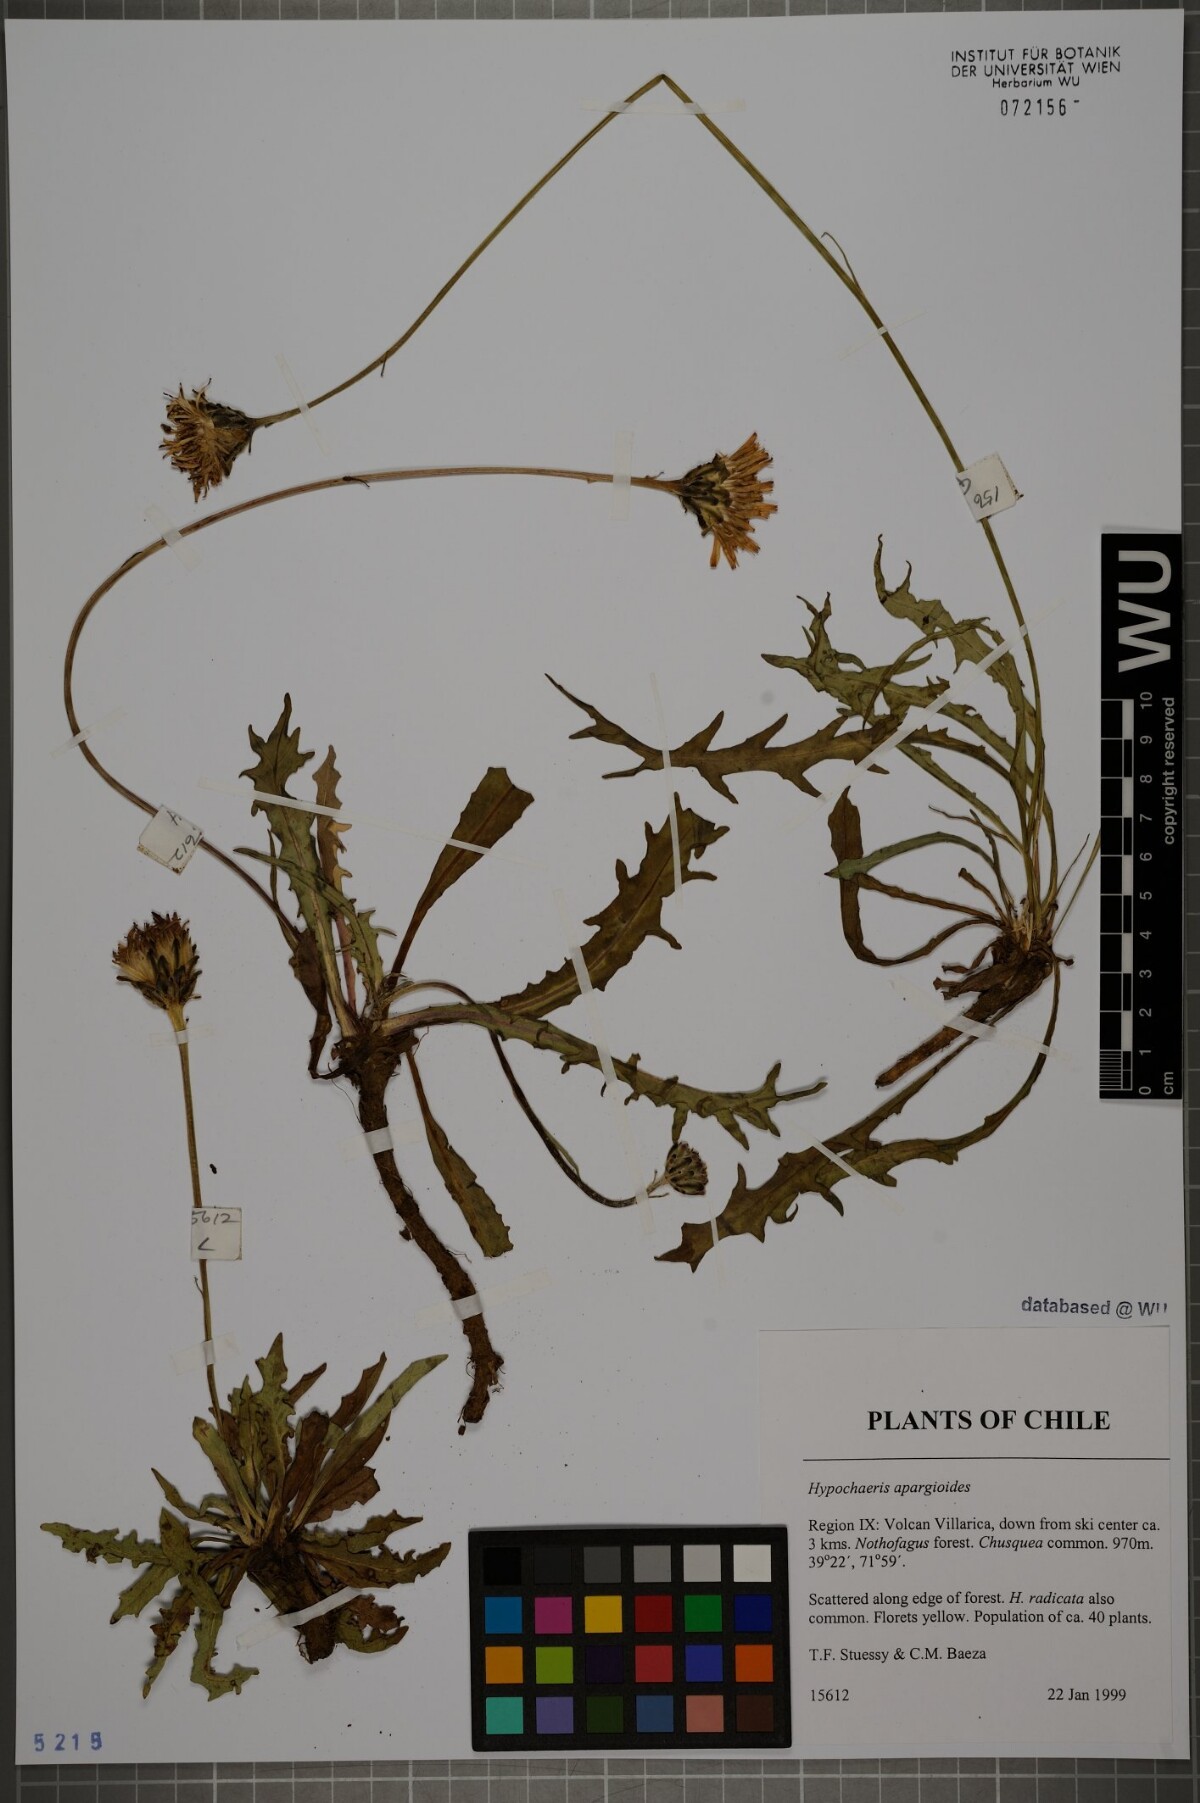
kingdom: Plantae
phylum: Tracheophyta
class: Magnoliopsida
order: Asterales
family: Asteraceae
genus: Hypochaeris
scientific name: Hypochaeris apargioides
